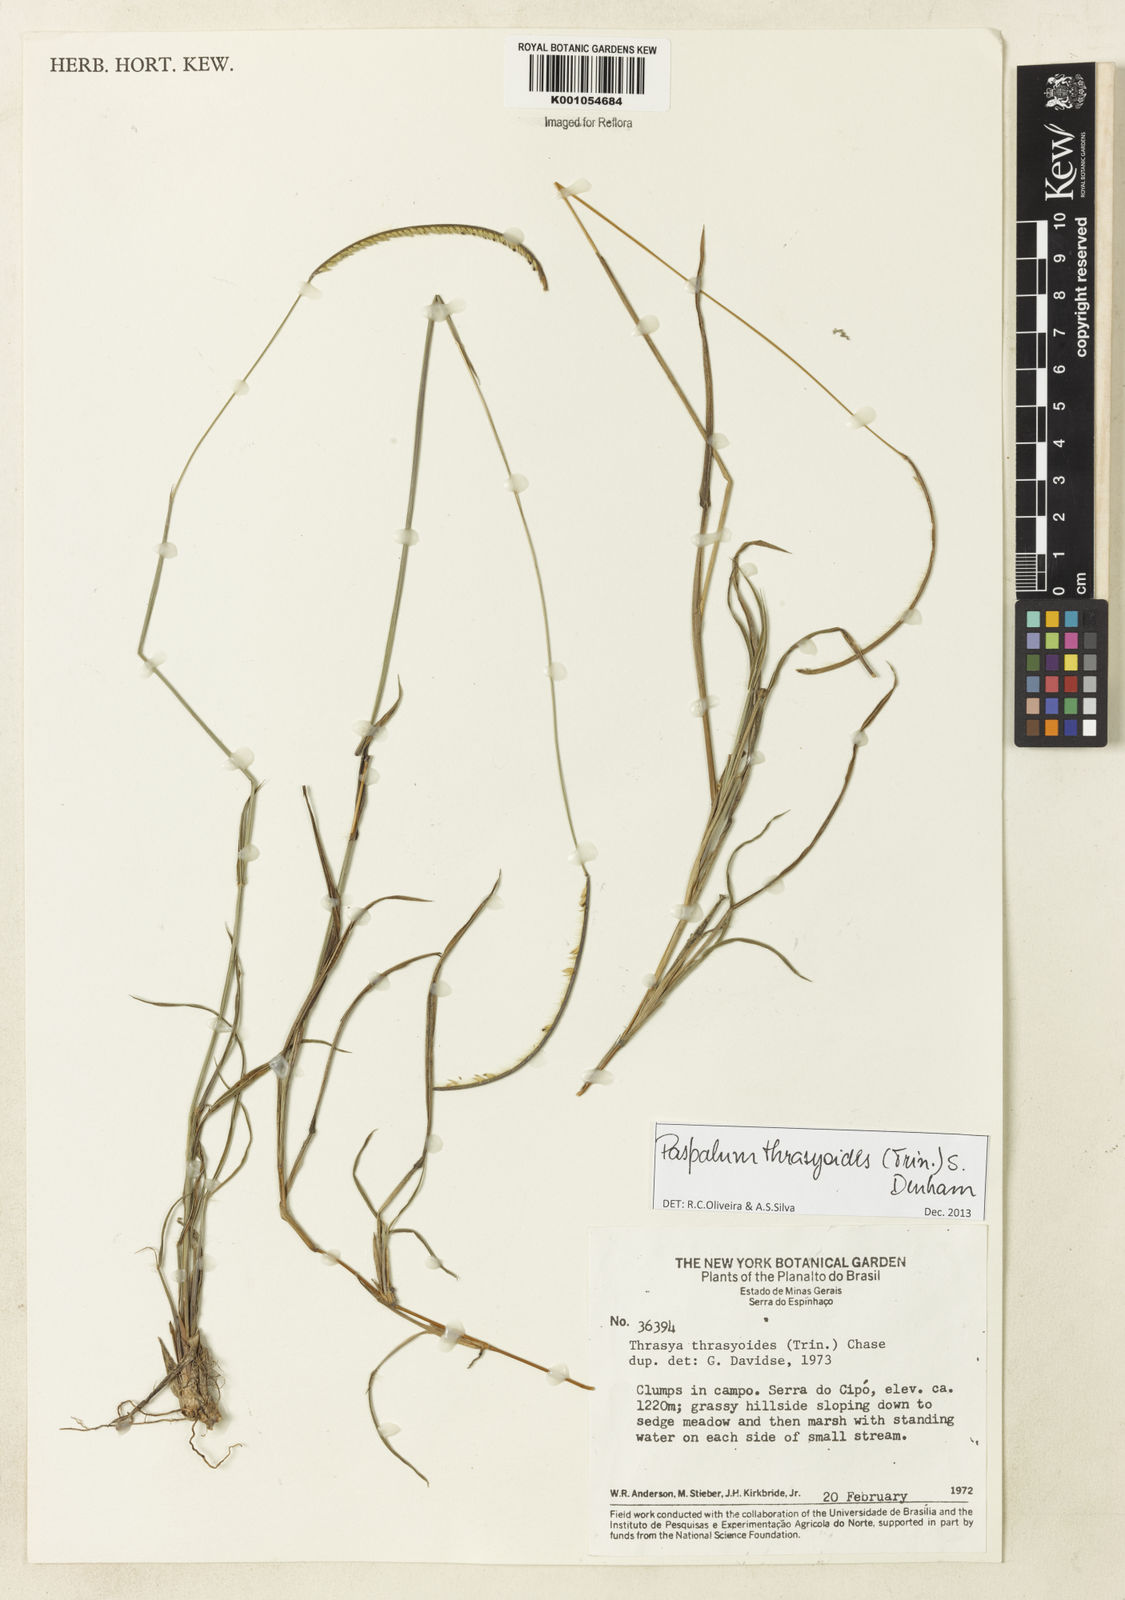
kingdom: Plantae
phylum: Tracheophyta
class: Liliopsida
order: Poales
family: Poaceae
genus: Paspalum
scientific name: Paspalum thrasyoides
